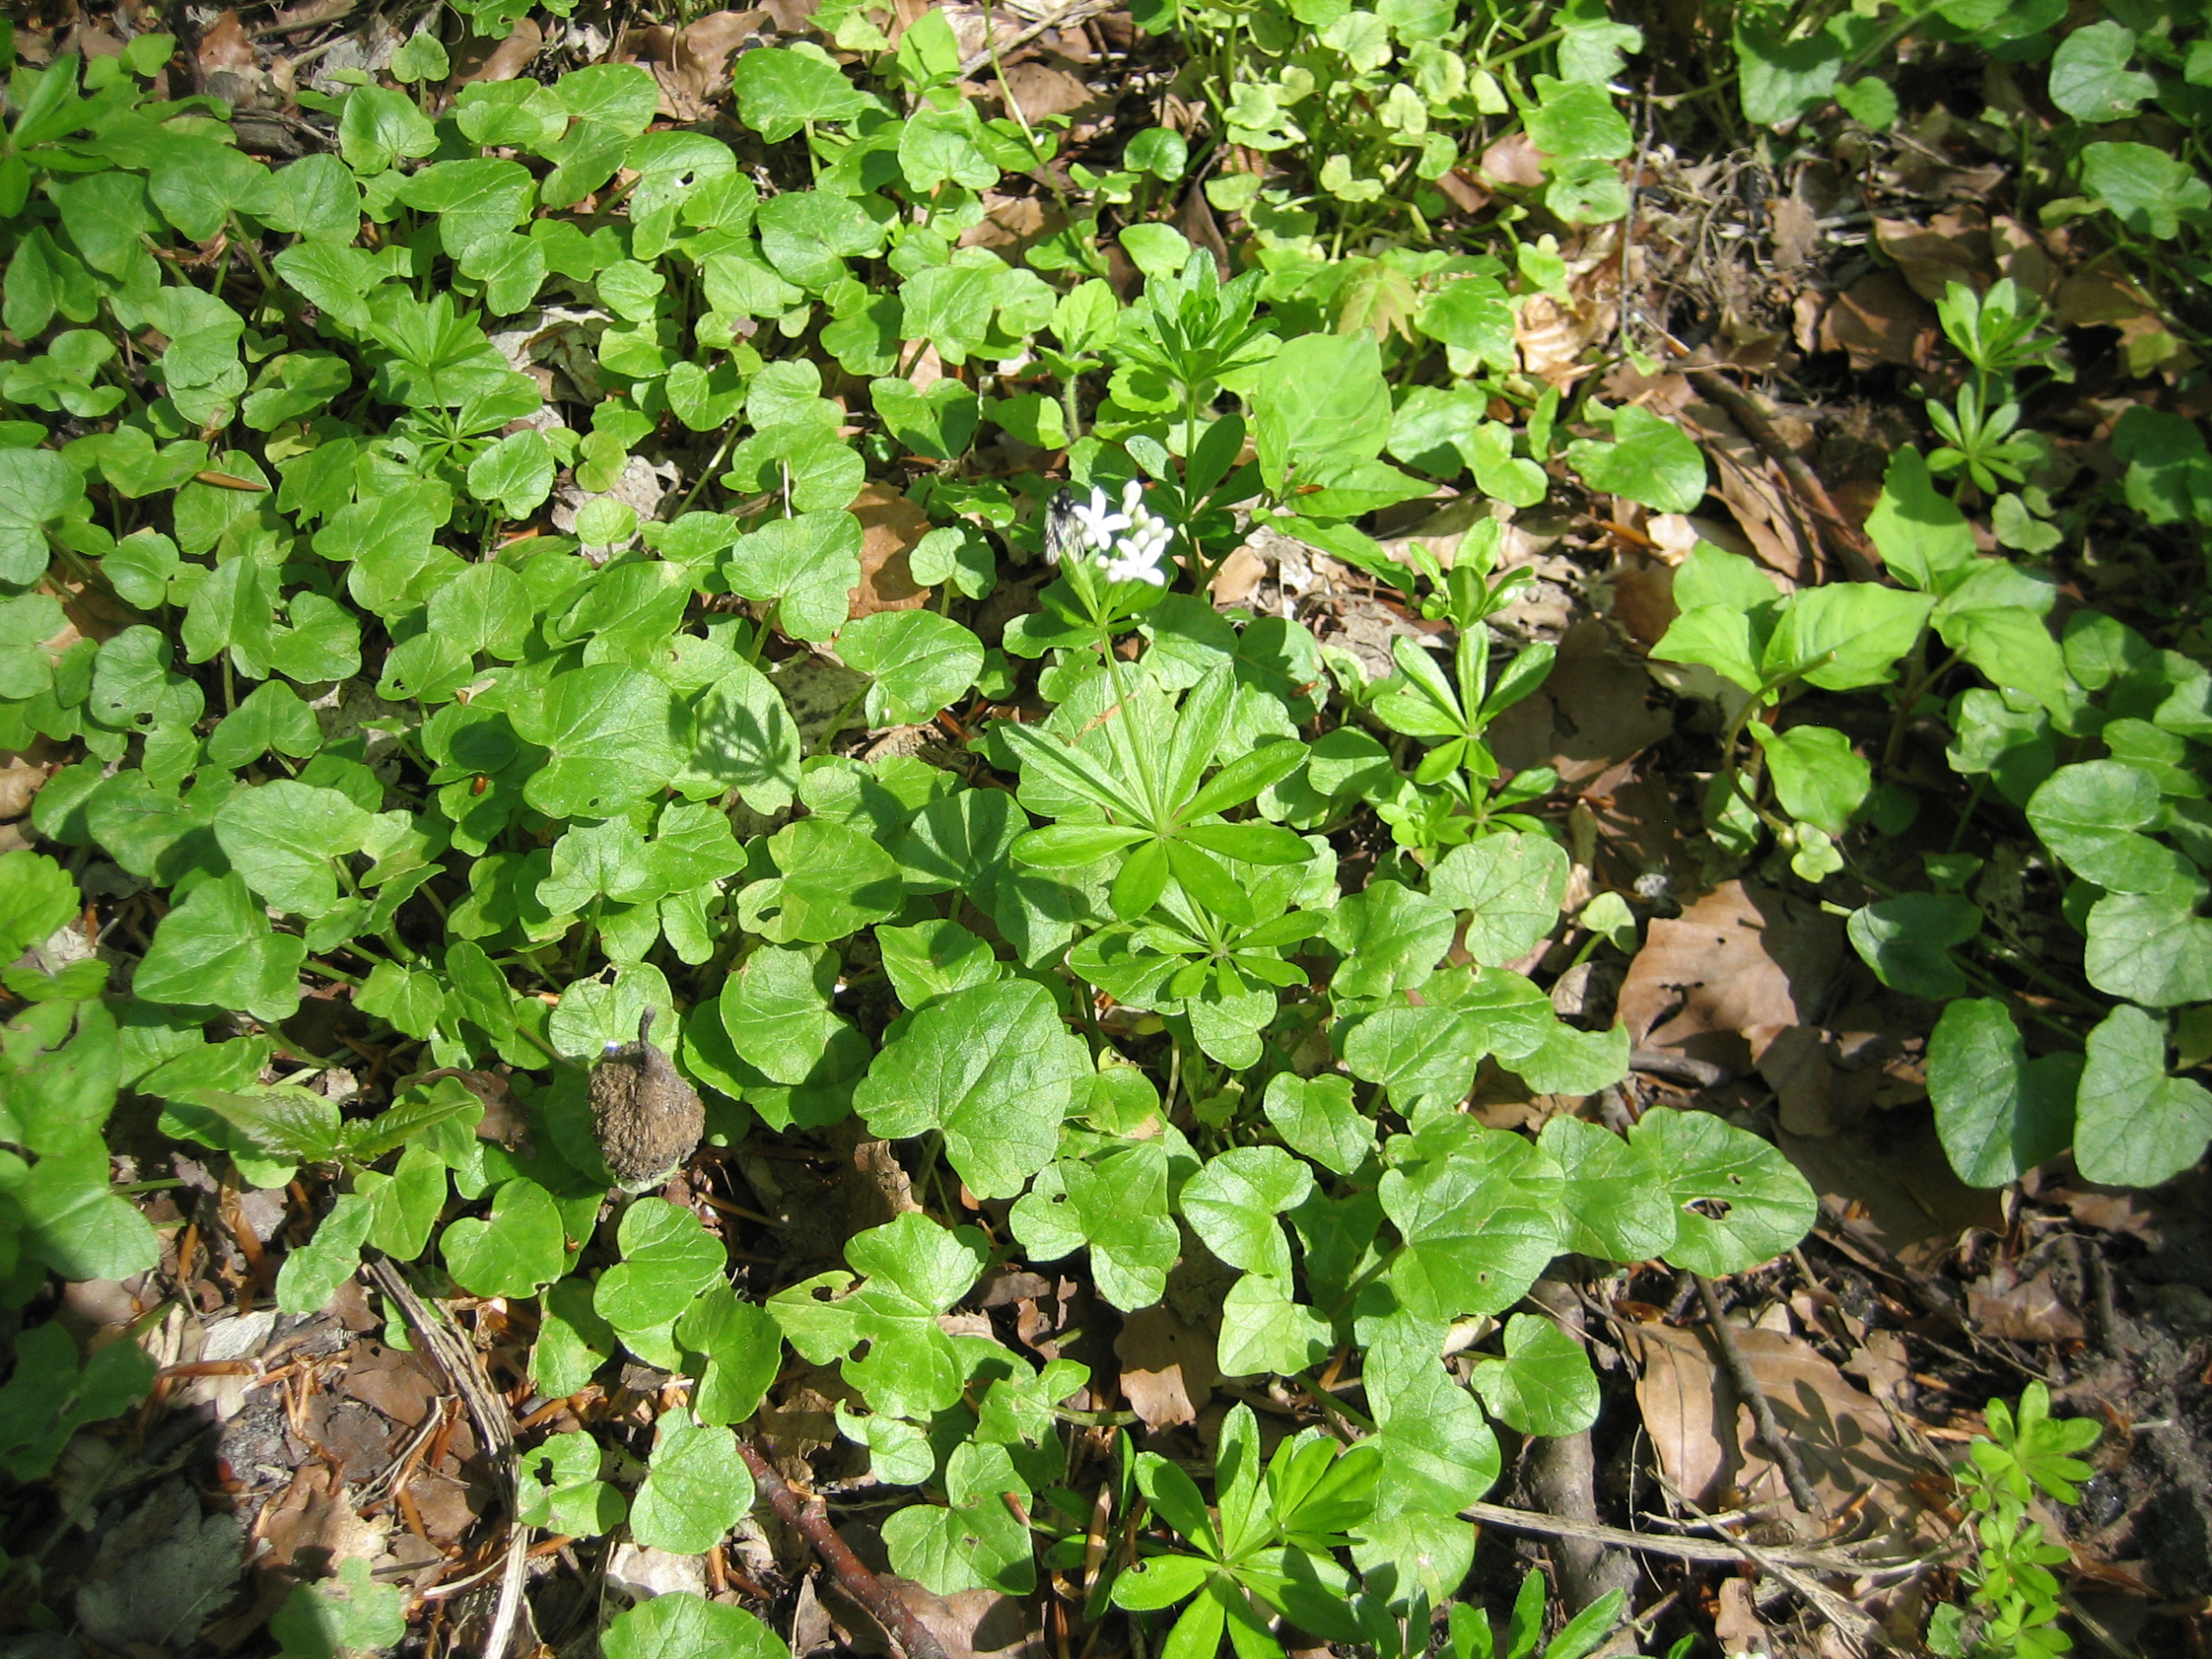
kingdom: Plantae
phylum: Tracheophyta
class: Magnoliopsida
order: Gentianales
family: Rubiaceae
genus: Galium
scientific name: Galium odoratum
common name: Skovmærke
